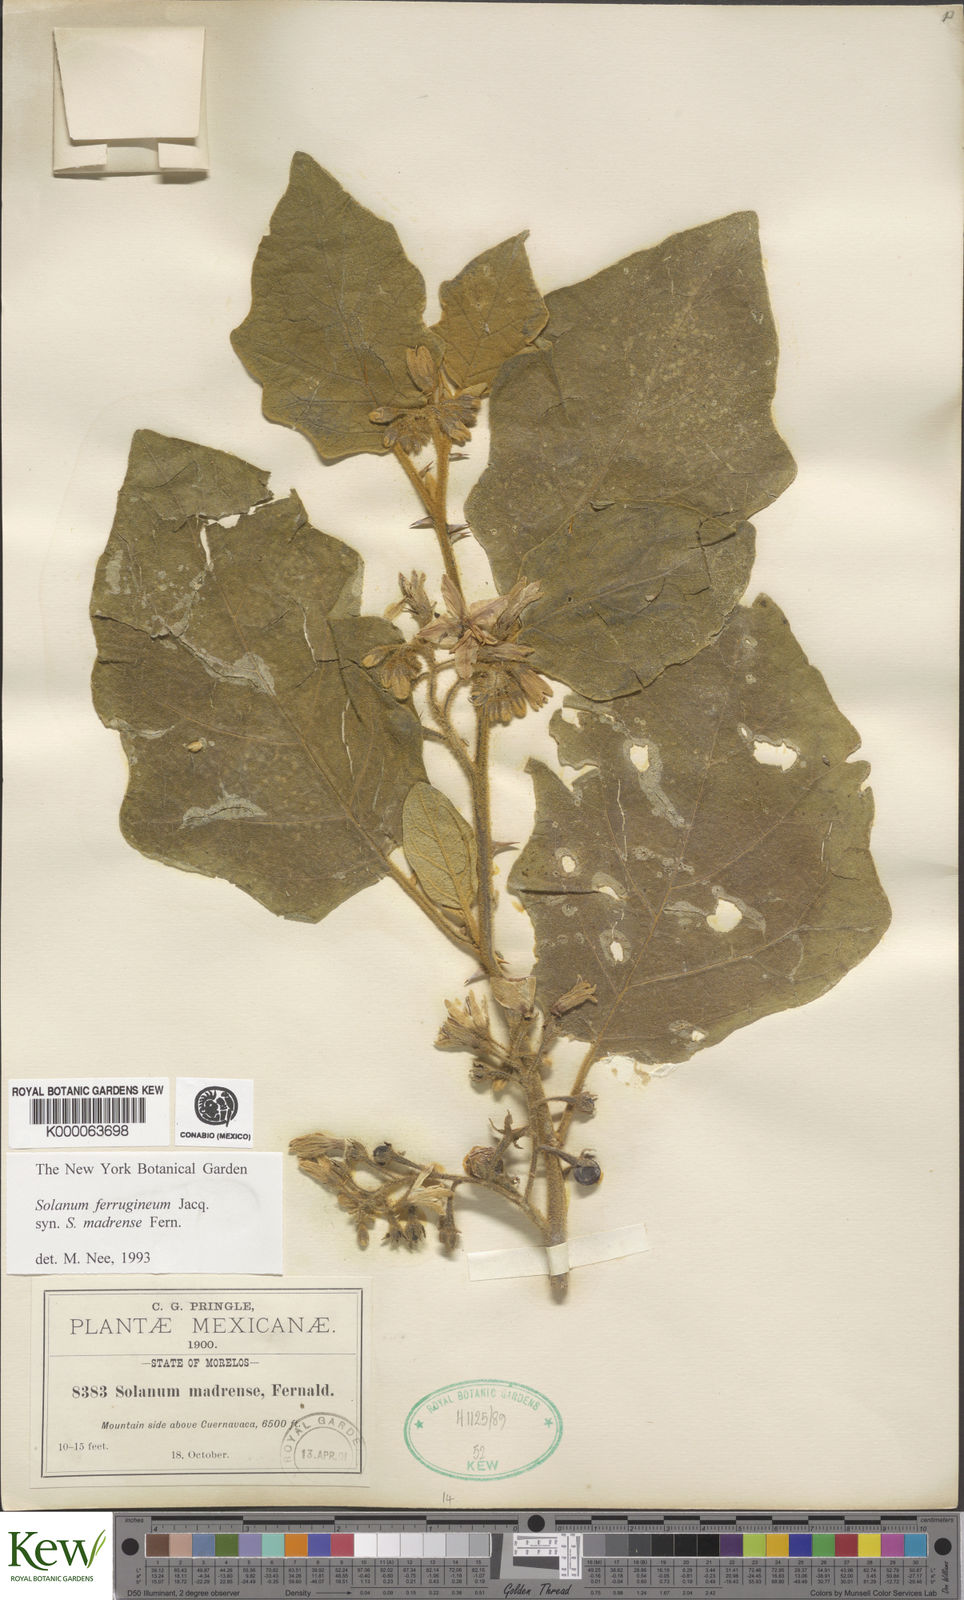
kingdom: Plantae
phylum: Tracheophyta
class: Magnoliopsida
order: Solanales
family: Solanaceae
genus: Solanum
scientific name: Solanum
